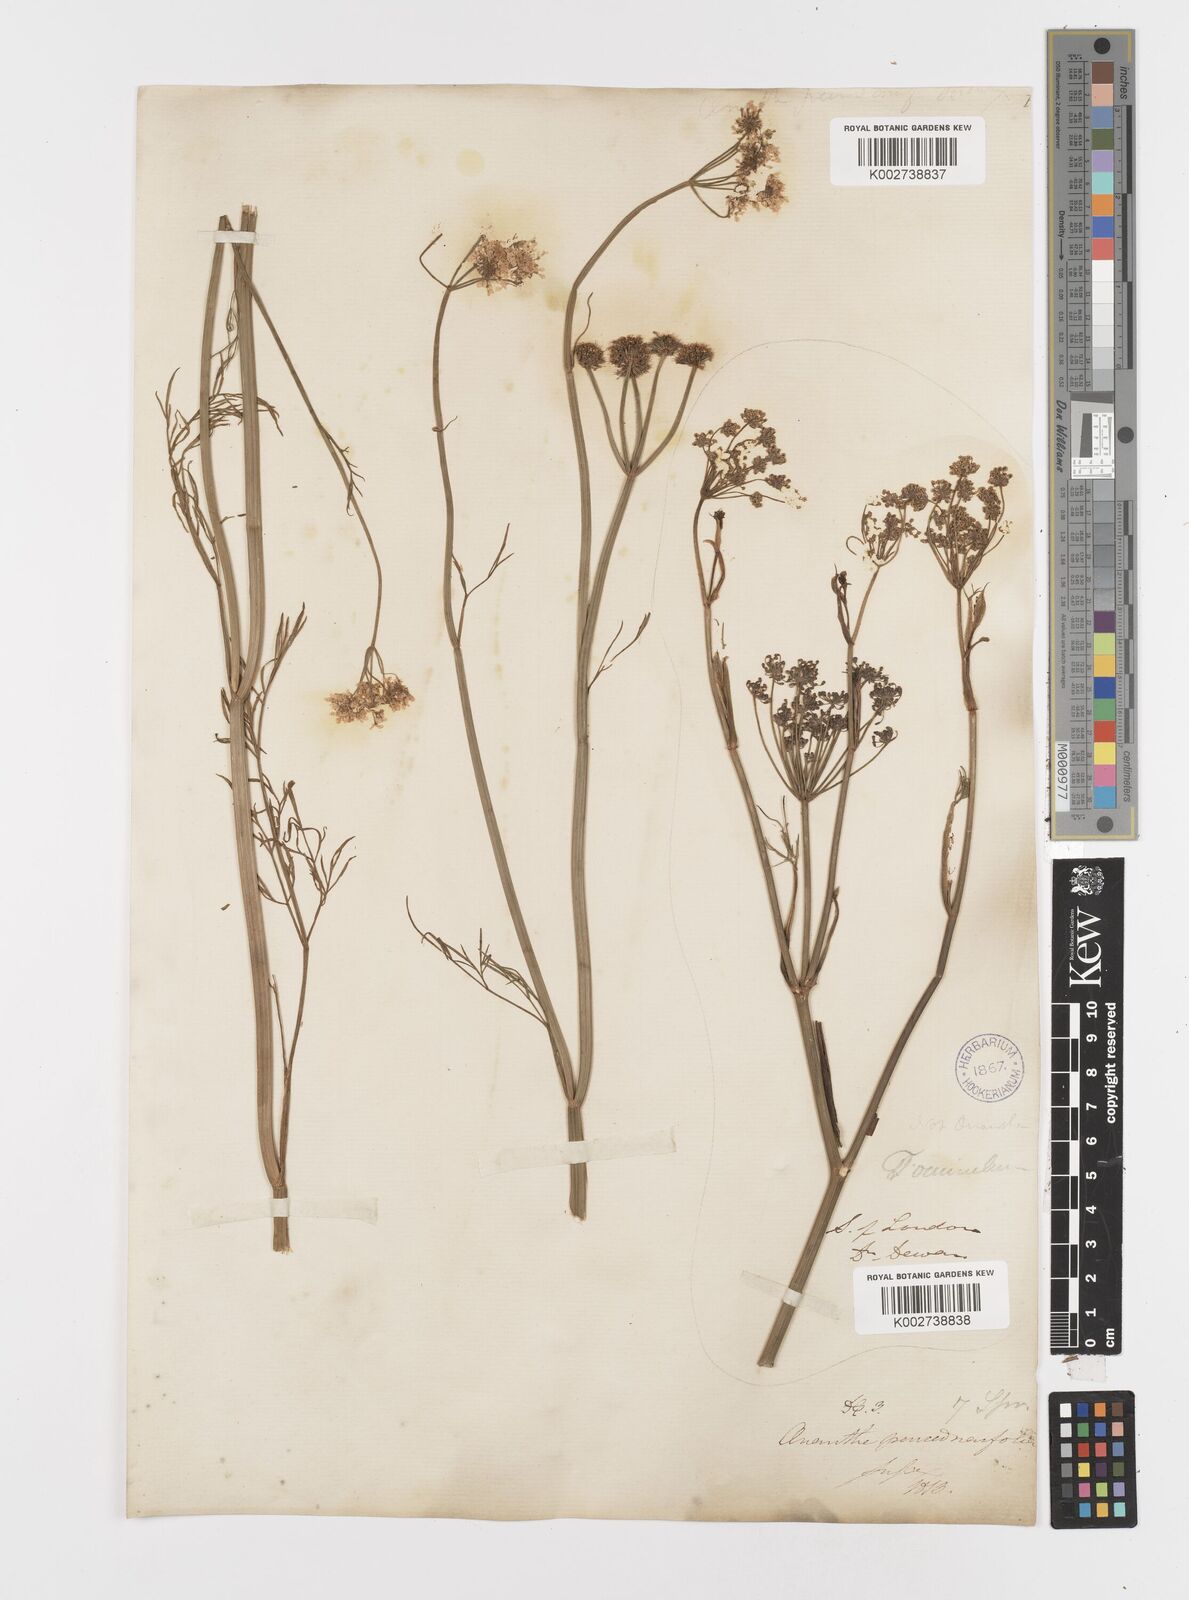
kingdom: Plantae
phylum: Tracheophyta
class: Magnoliopsida
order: Apiales
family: Apiaceae
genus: Oenanthe
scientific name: Oenanthe silaifolia
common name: Narrow-leaved water-dropwort
